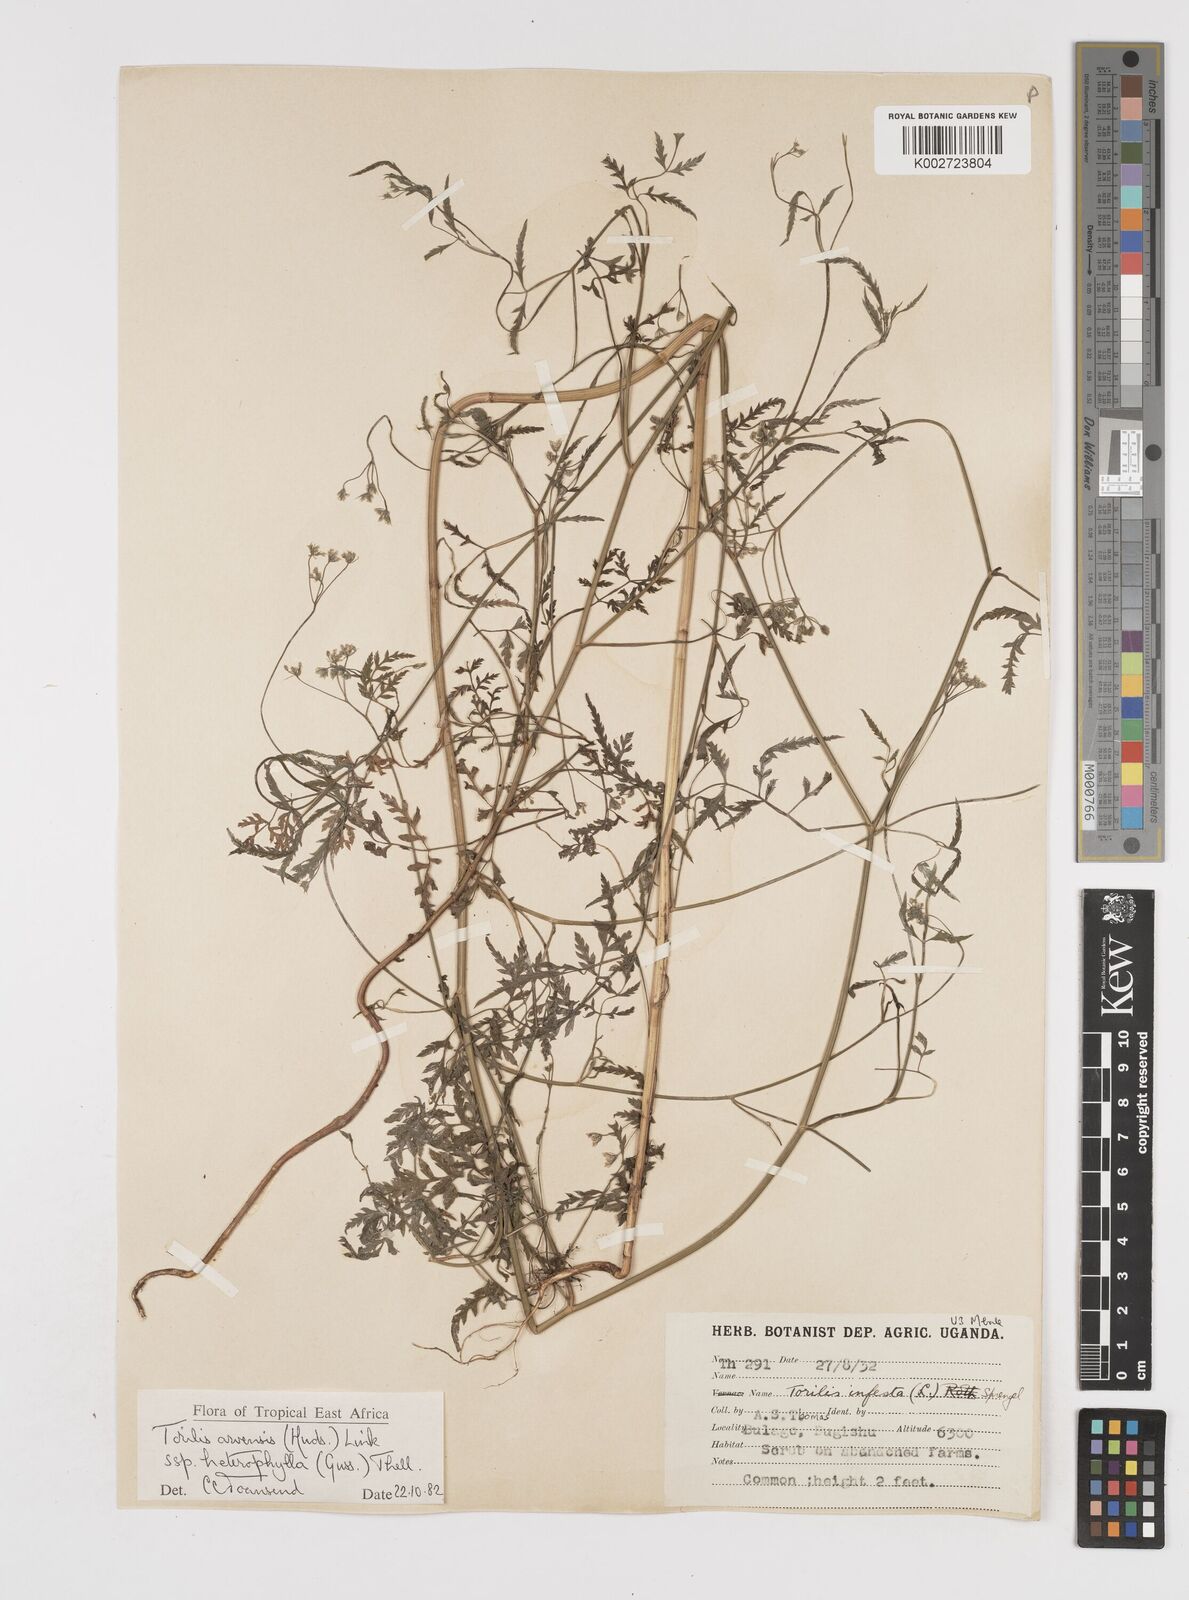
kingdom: Plantae
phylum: Tracheophyta
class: Magnoliopsida
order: Apiales
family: Apiaceae
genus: Torilis
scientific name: Torilis arvensis
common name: Spreading hedge-parsley
